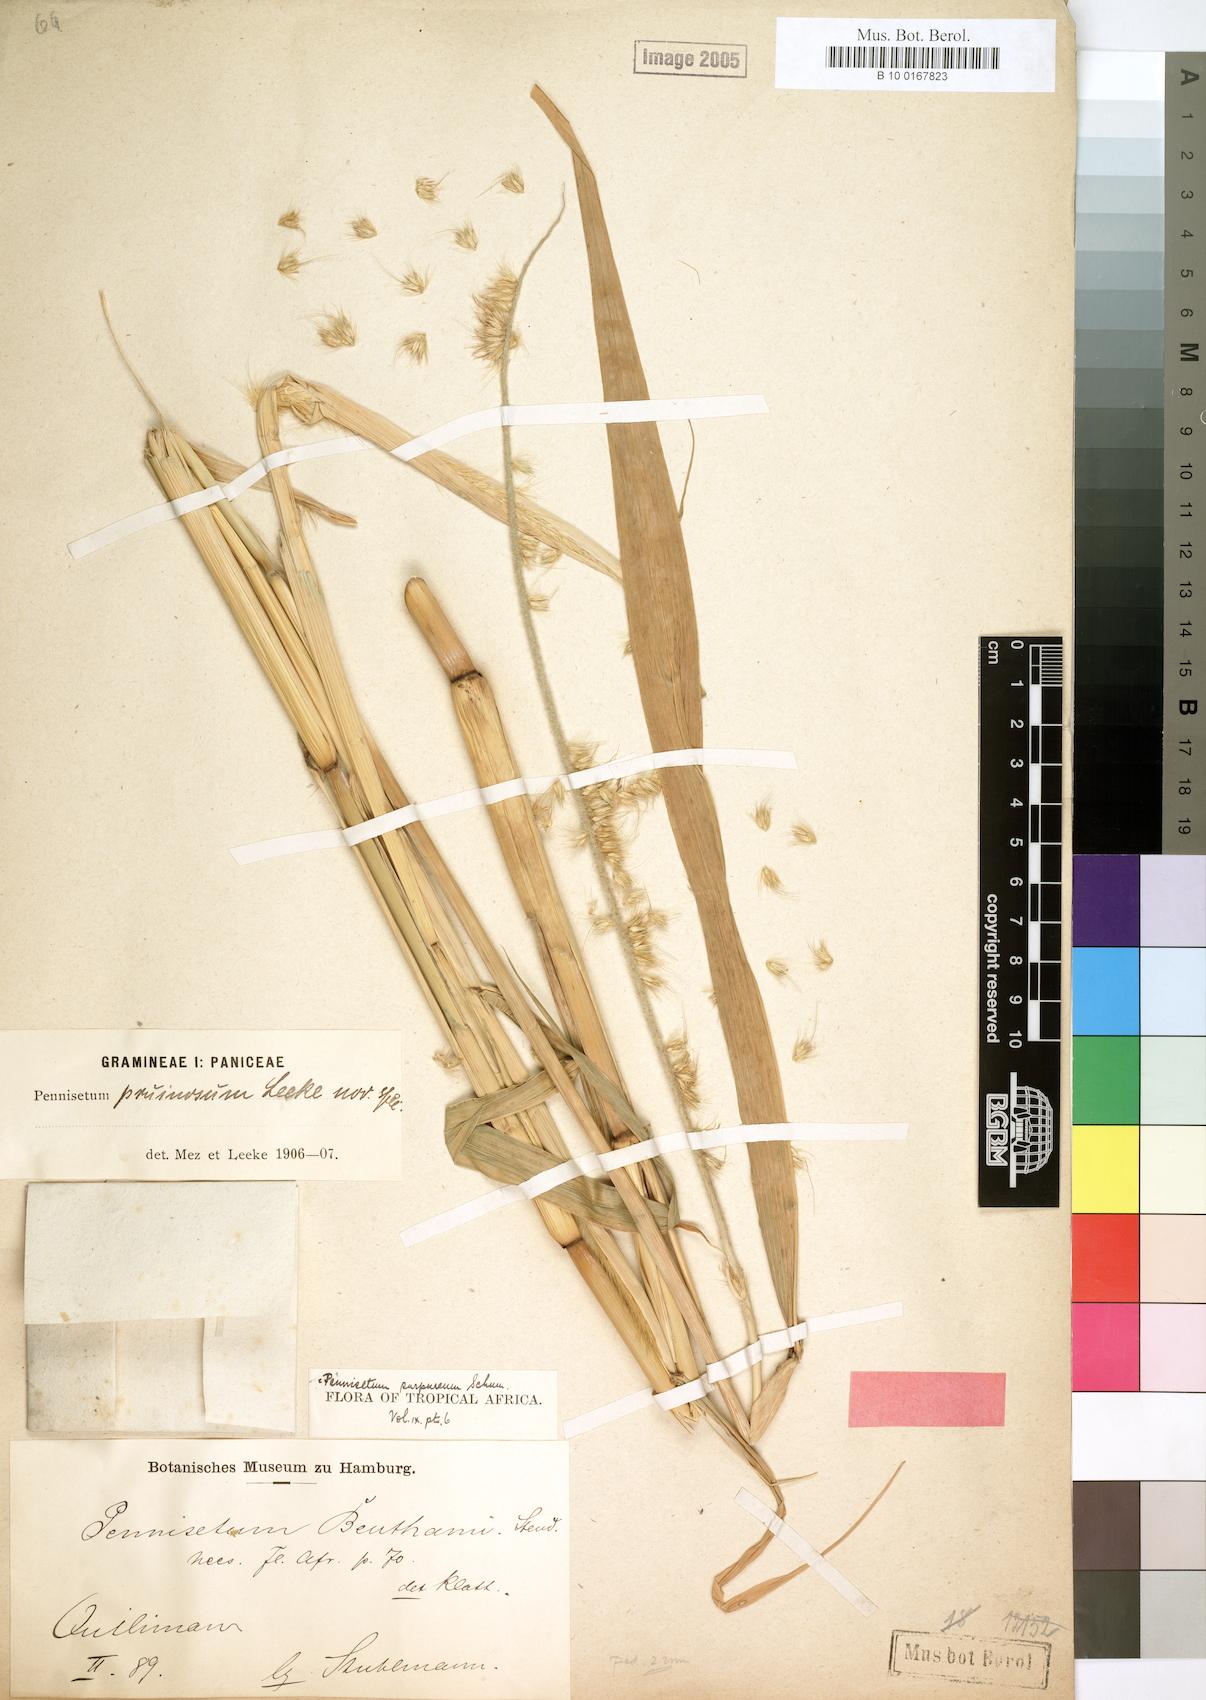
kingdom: Plantae
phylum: Tracheophyta
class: Liliopsida
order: Poales
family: Poaceae
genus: Cenchrus
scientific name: Cenchrus purpureus
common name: Elephant grass
